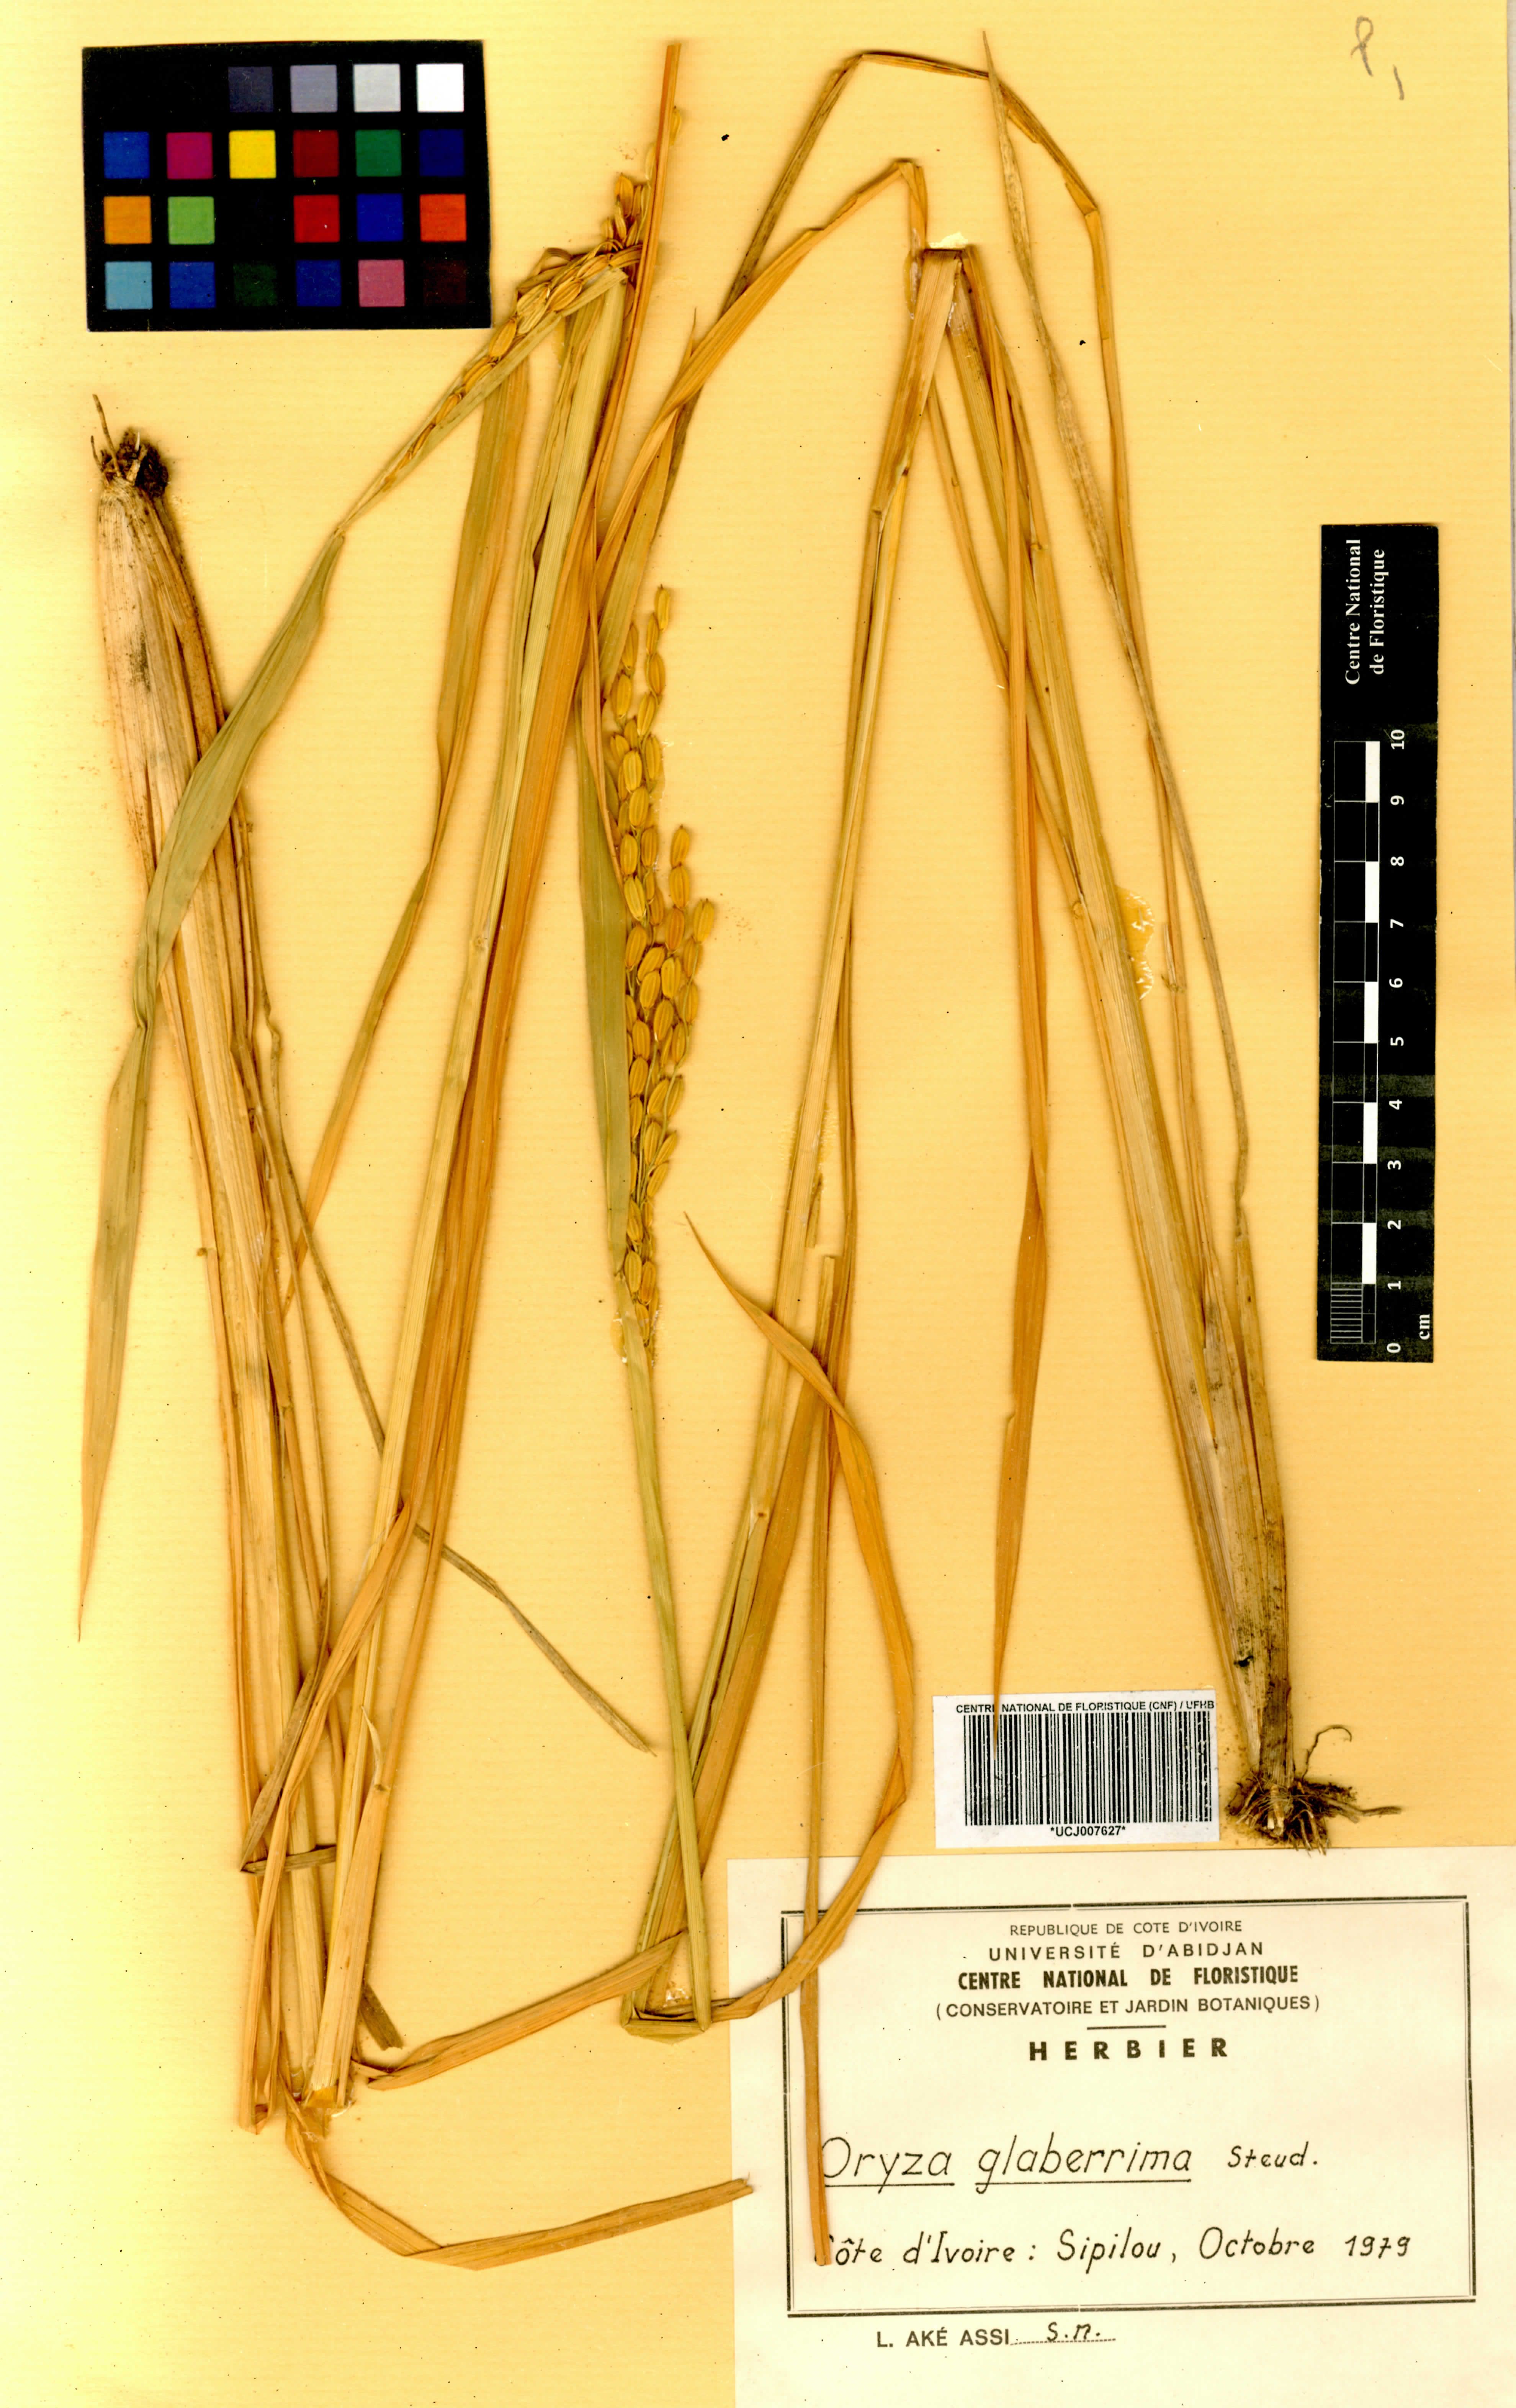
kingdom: Plantae
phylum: Tracheophyta
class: Liliopsida
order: Poales
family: Poaceae
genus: Oryza
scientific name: Oryza glaberrima
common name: African rice
